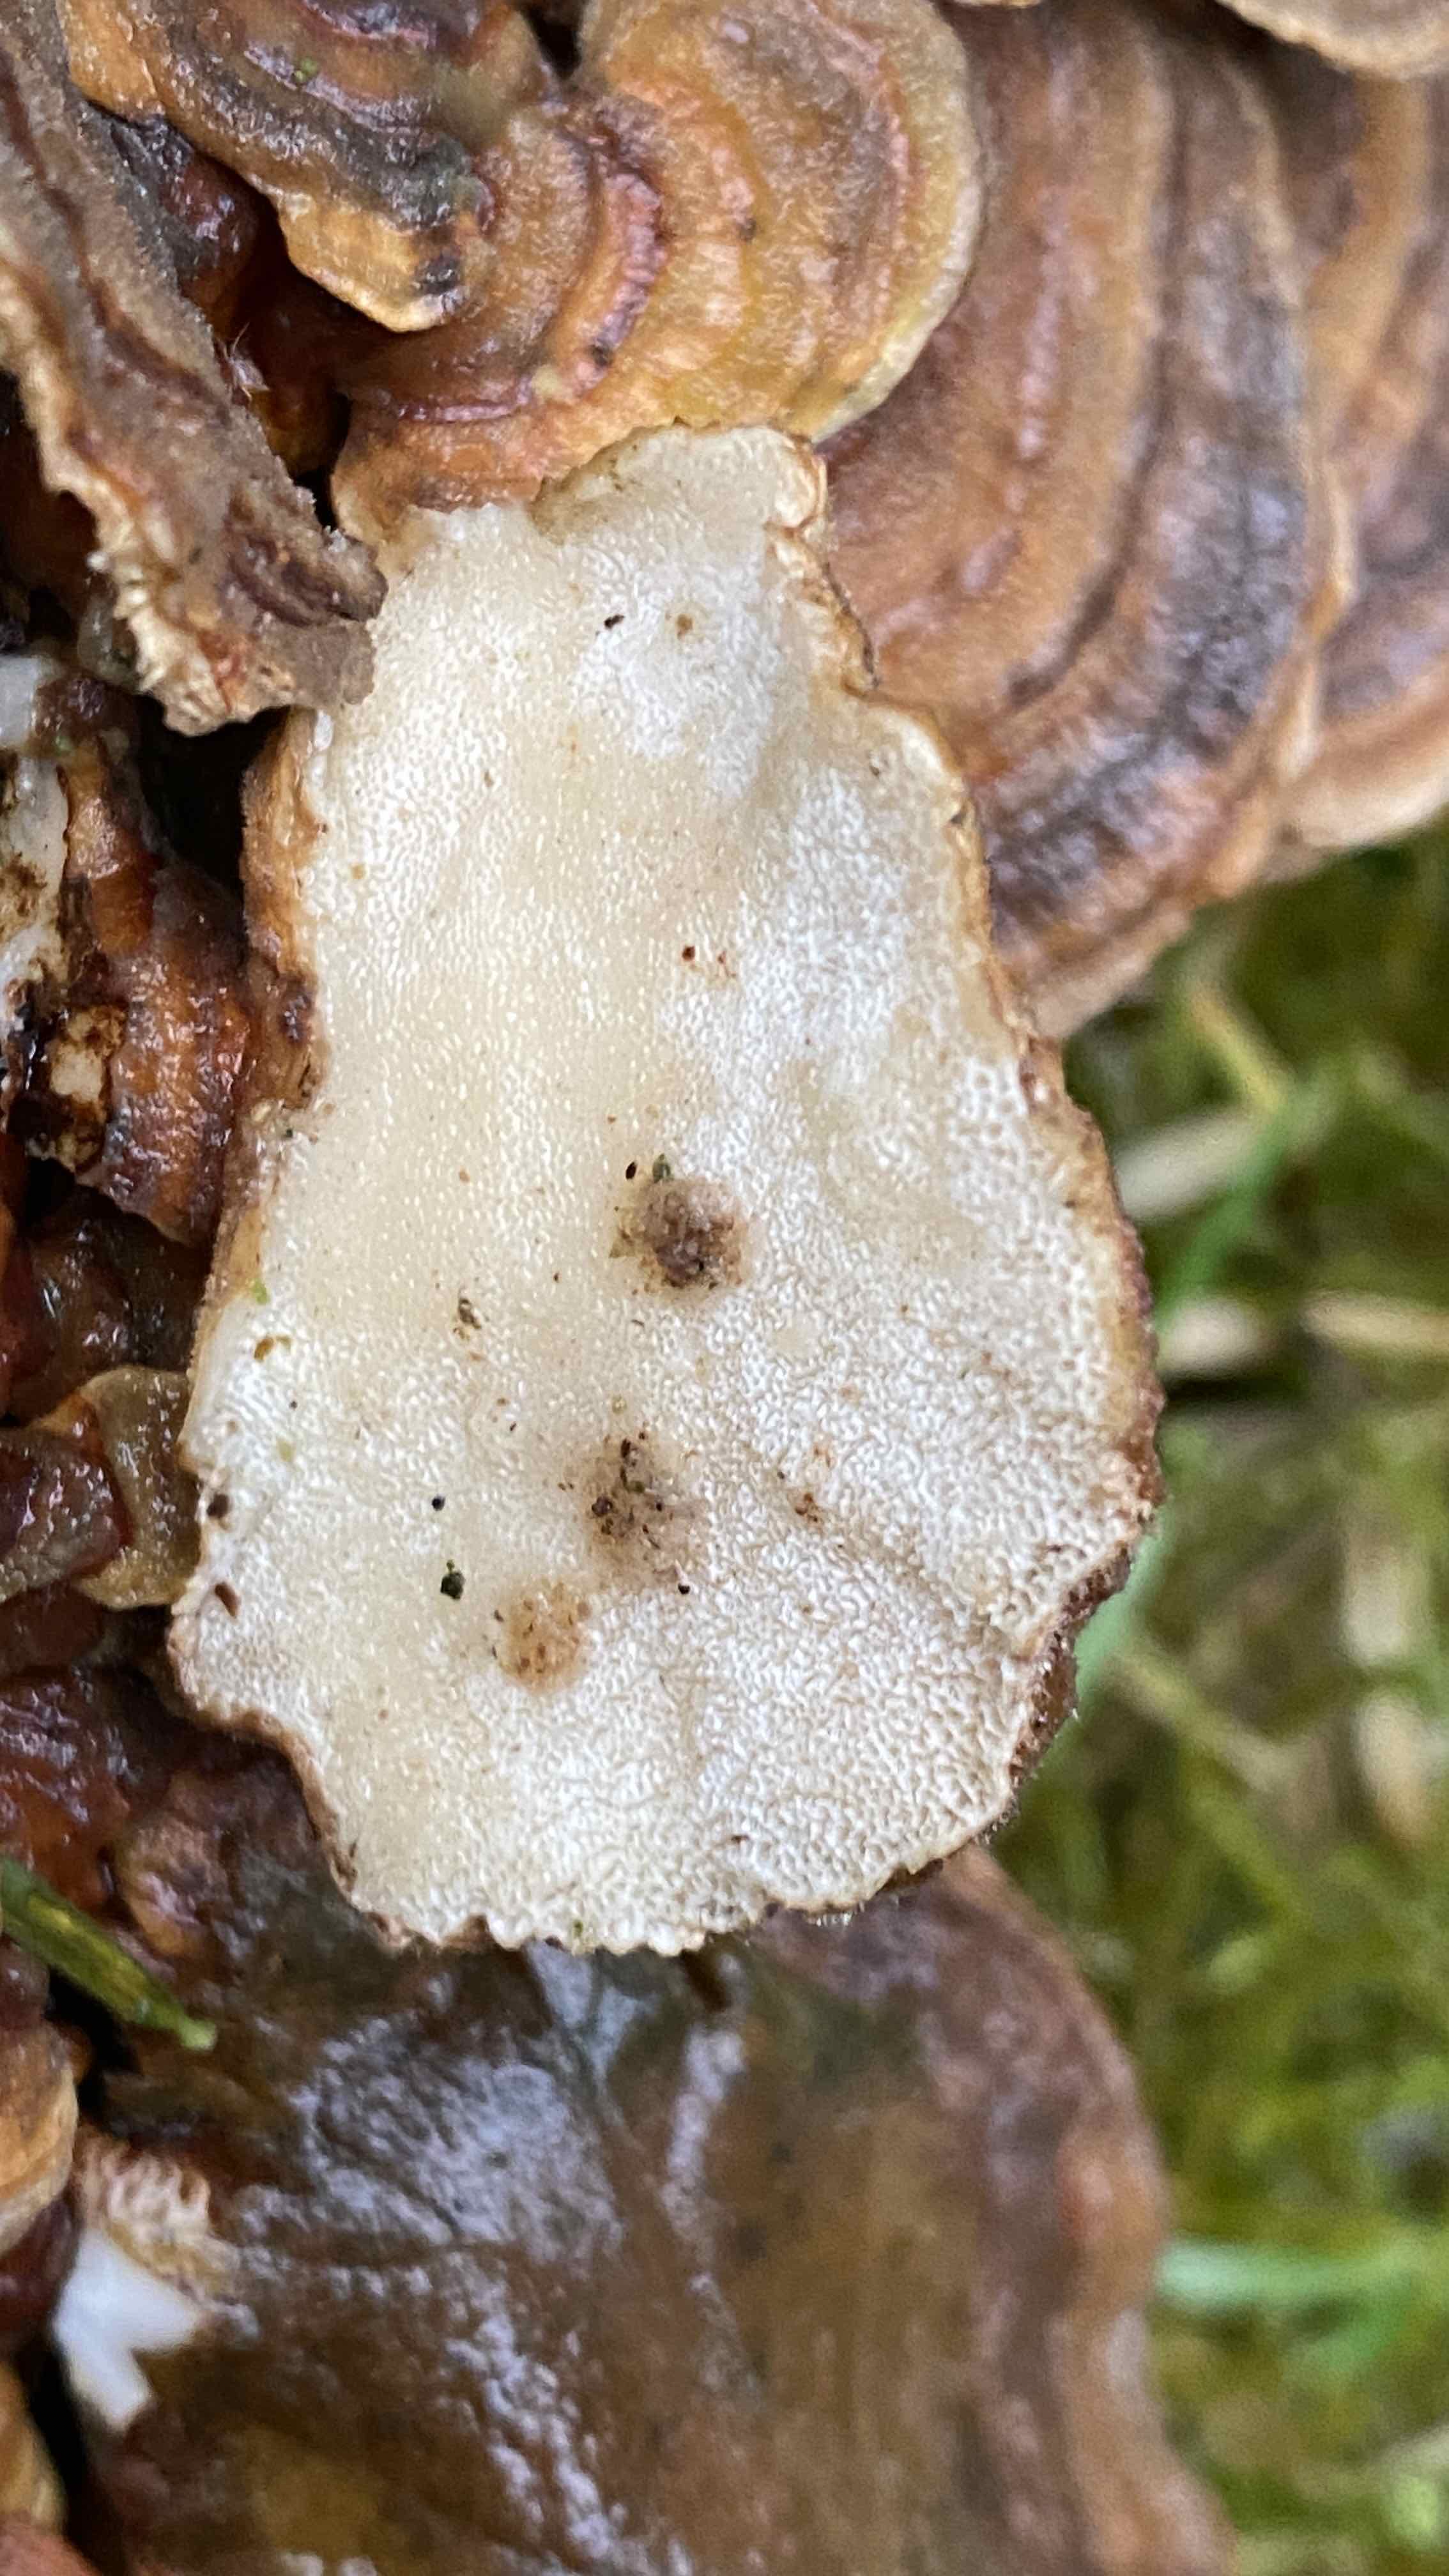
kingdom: Fungi
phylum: Basidiomycota
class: Agaricomycetes
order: Polyporales
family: Polyporaceae
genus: Trametes
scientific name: Trametes versicolor
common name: broget læderporesvamp
